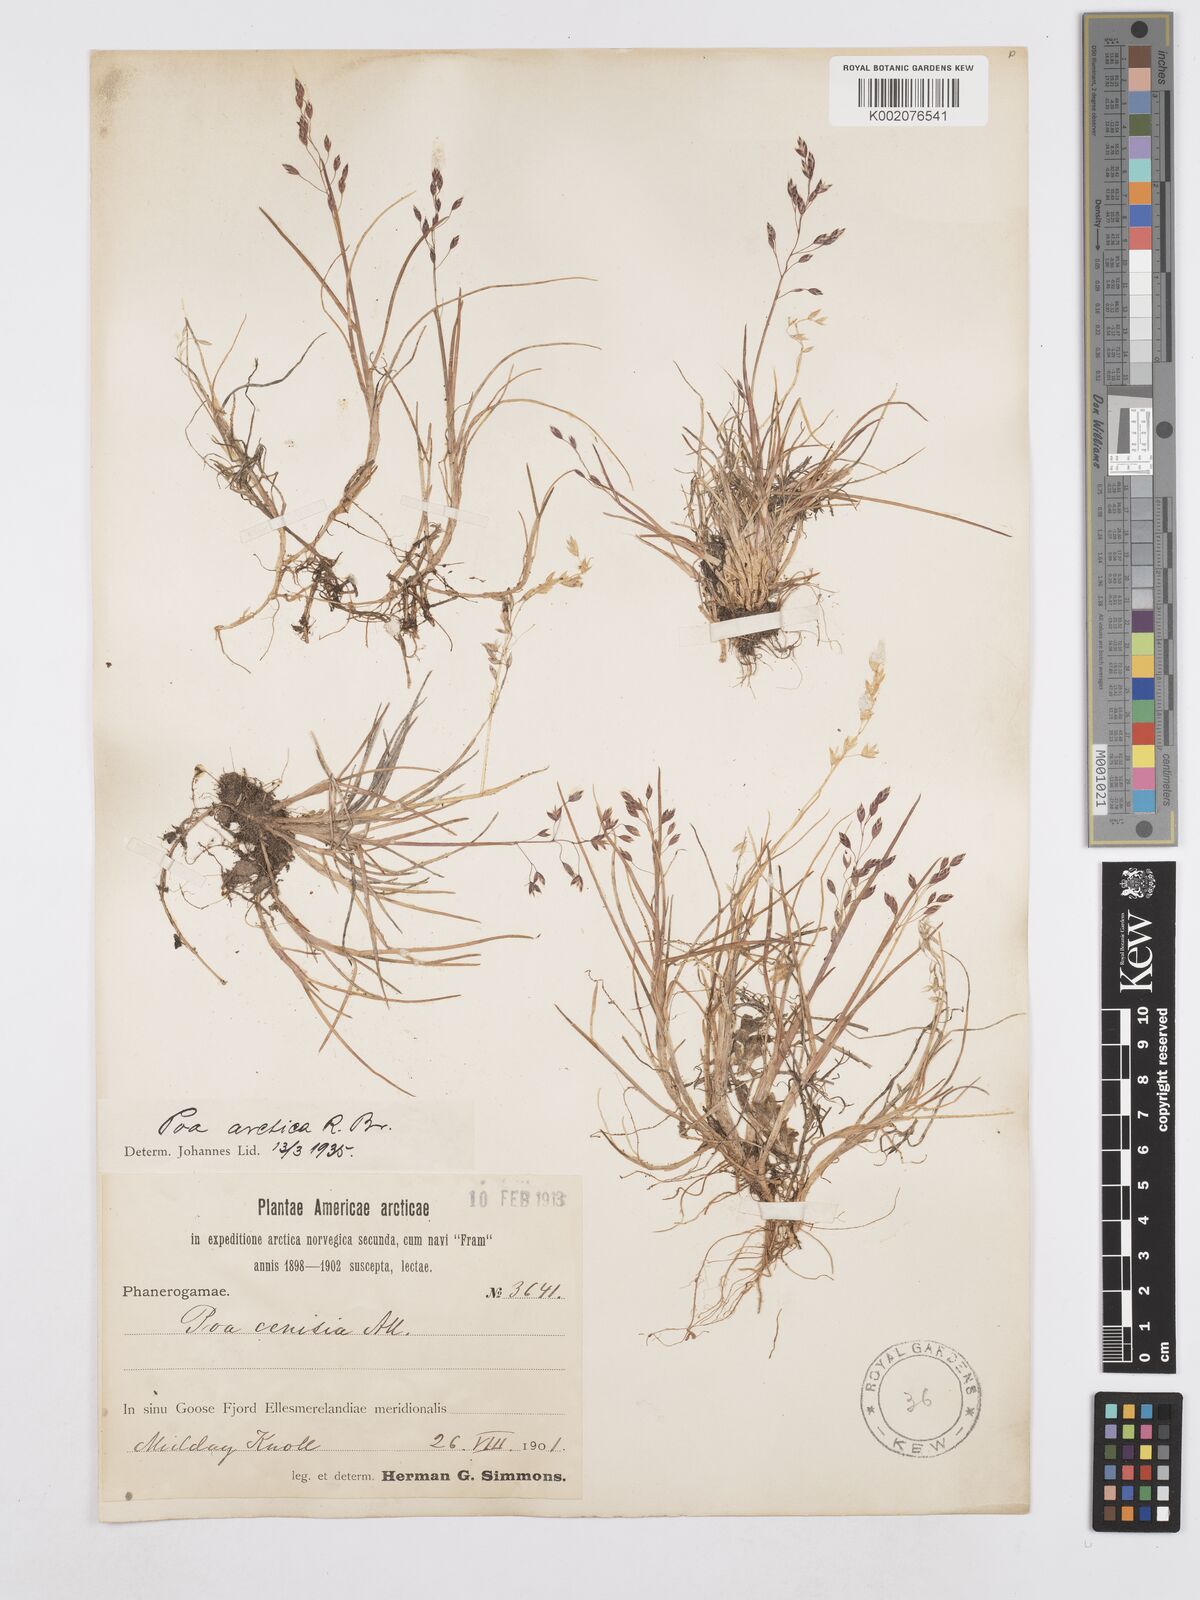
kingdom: Plantae
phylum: Tracheophyta
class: Liliopsida
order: Poales
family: Poaceae
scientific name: Poaceae
